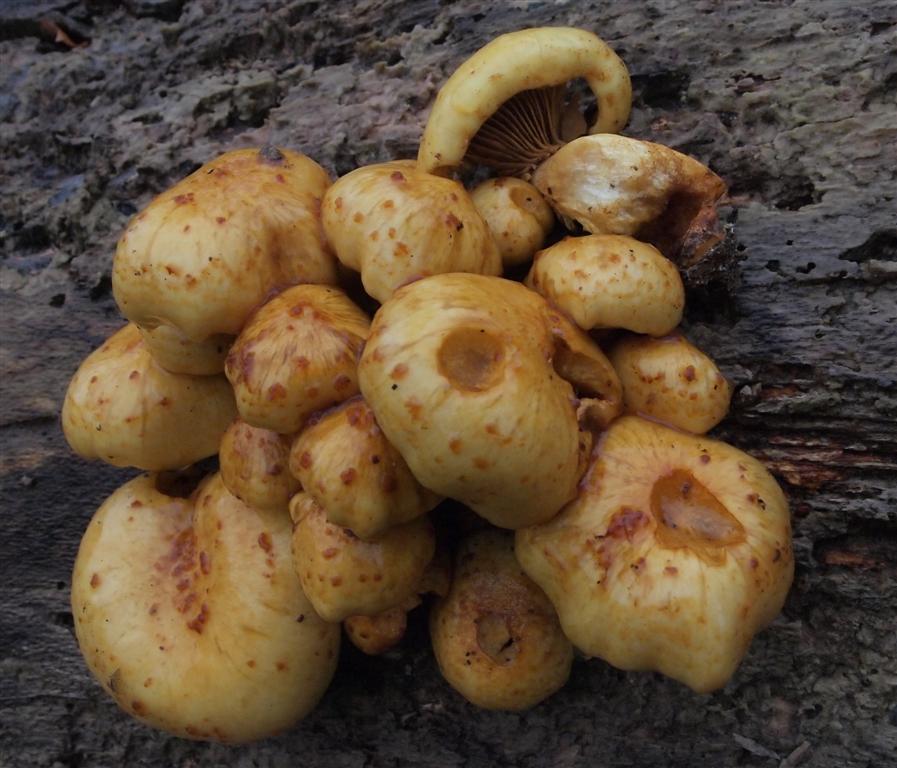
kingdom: Fungi
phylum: Basidiomycota
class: Agaricomycetes
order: Agaricales
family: Strophariaceae
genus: Pholiota
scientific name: Pholiota adiposa
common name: højtsiddende skælhat
